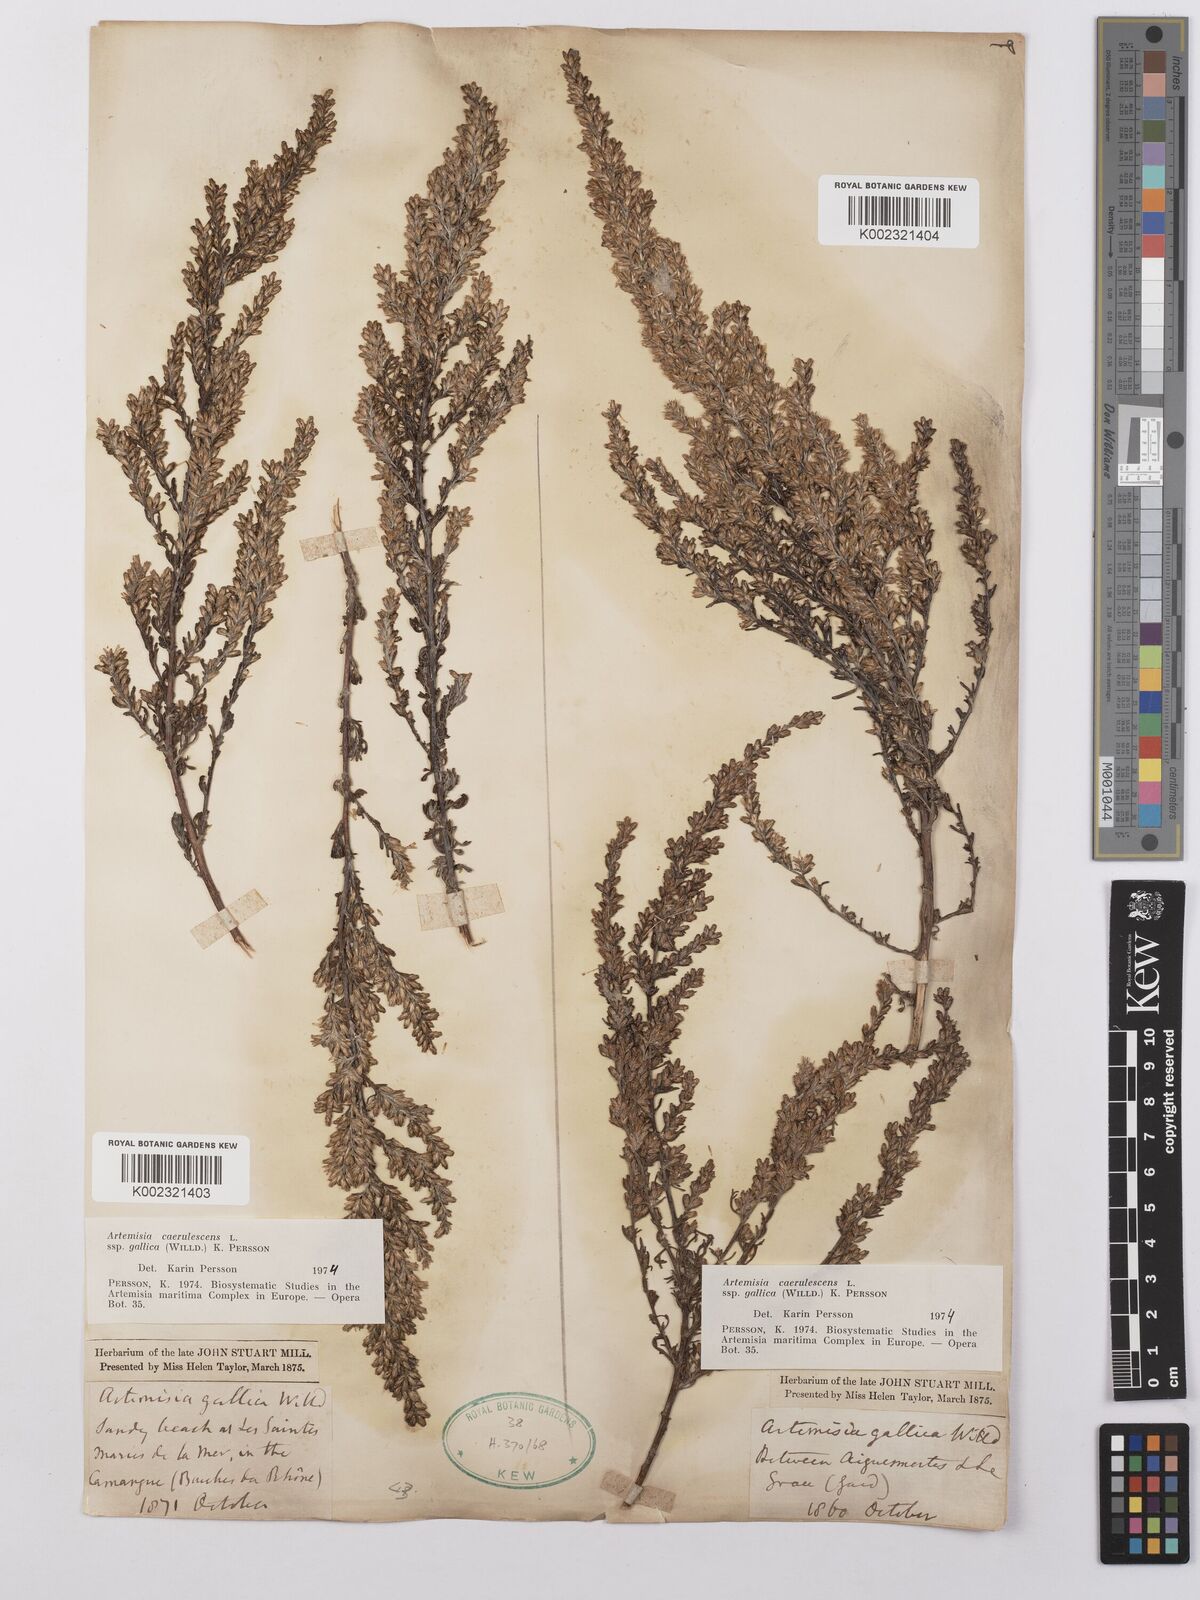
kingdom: Plantae
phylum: Tracheophyta
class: Magnoliopsida
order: Asterales
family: Asteraceae
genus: Artemisia
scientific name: Artemisia caerulescens
